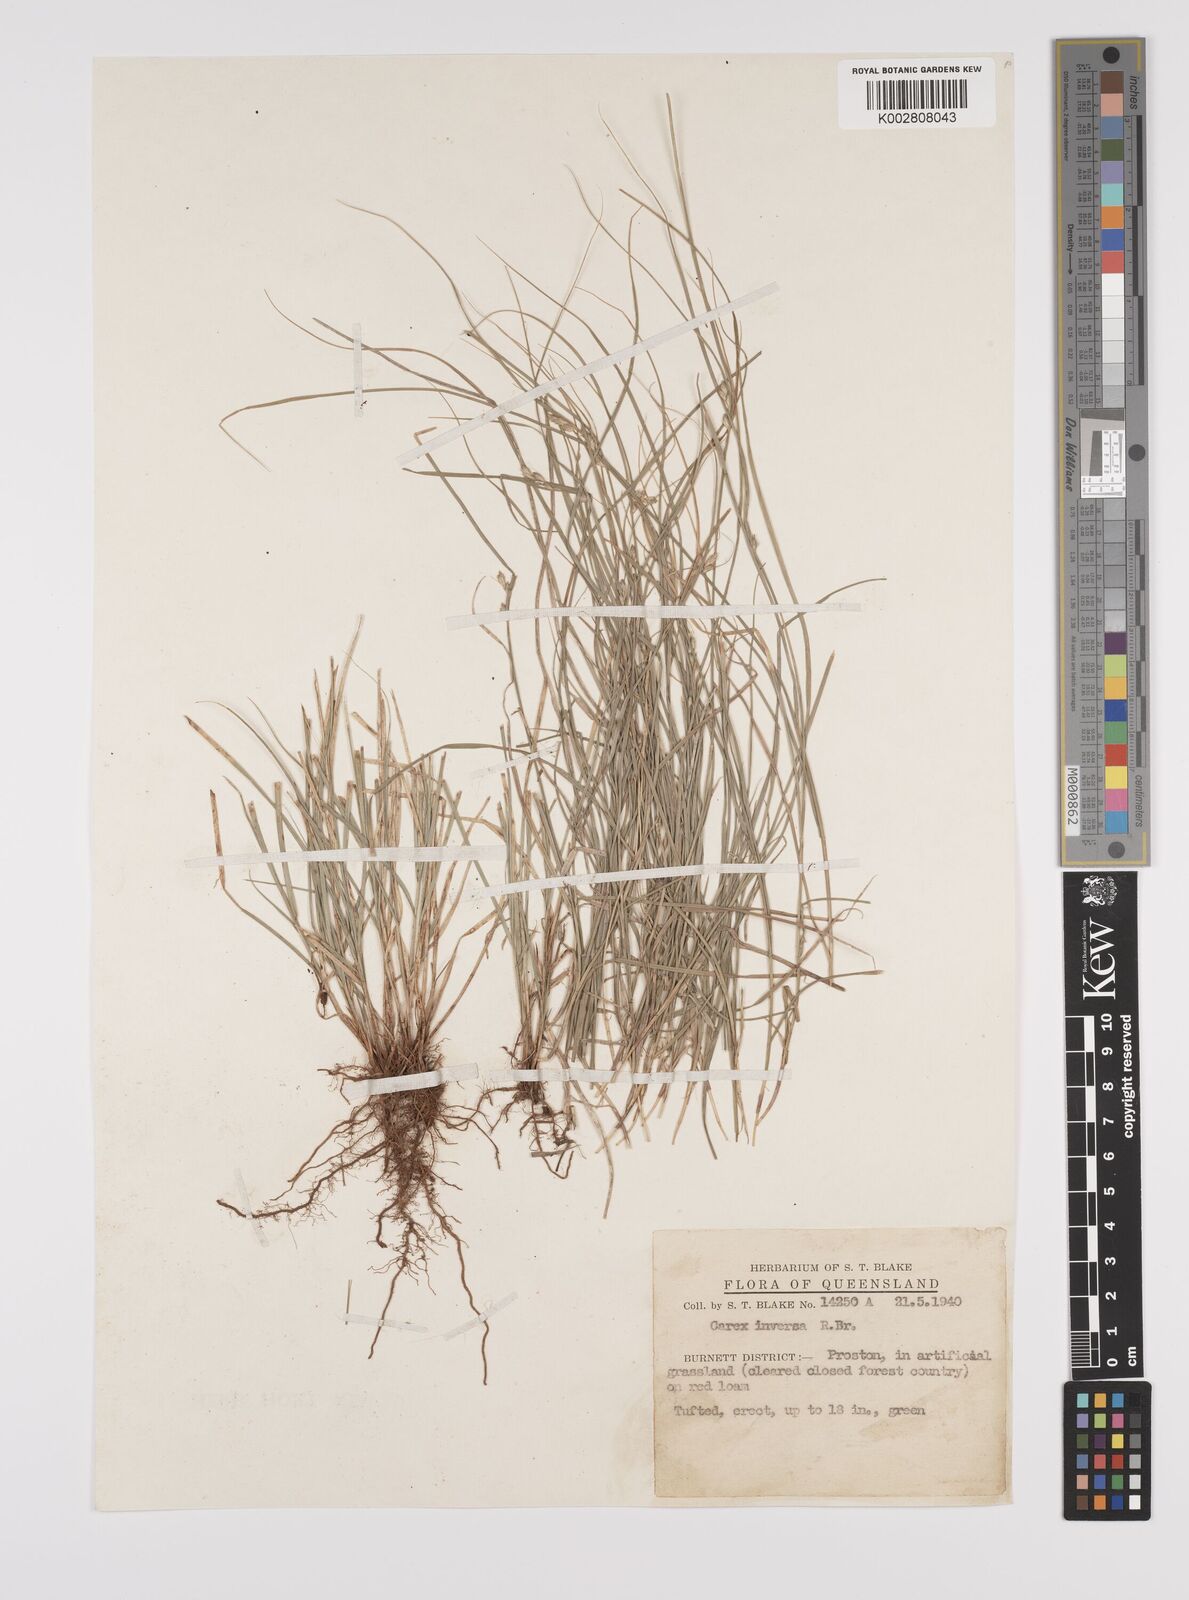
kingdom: Plantae
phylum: Tracheophyta
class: Liliopsida
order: Poales
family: Cyperaceae
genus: Carex
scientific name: Carex inversa
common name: Knob sedge
